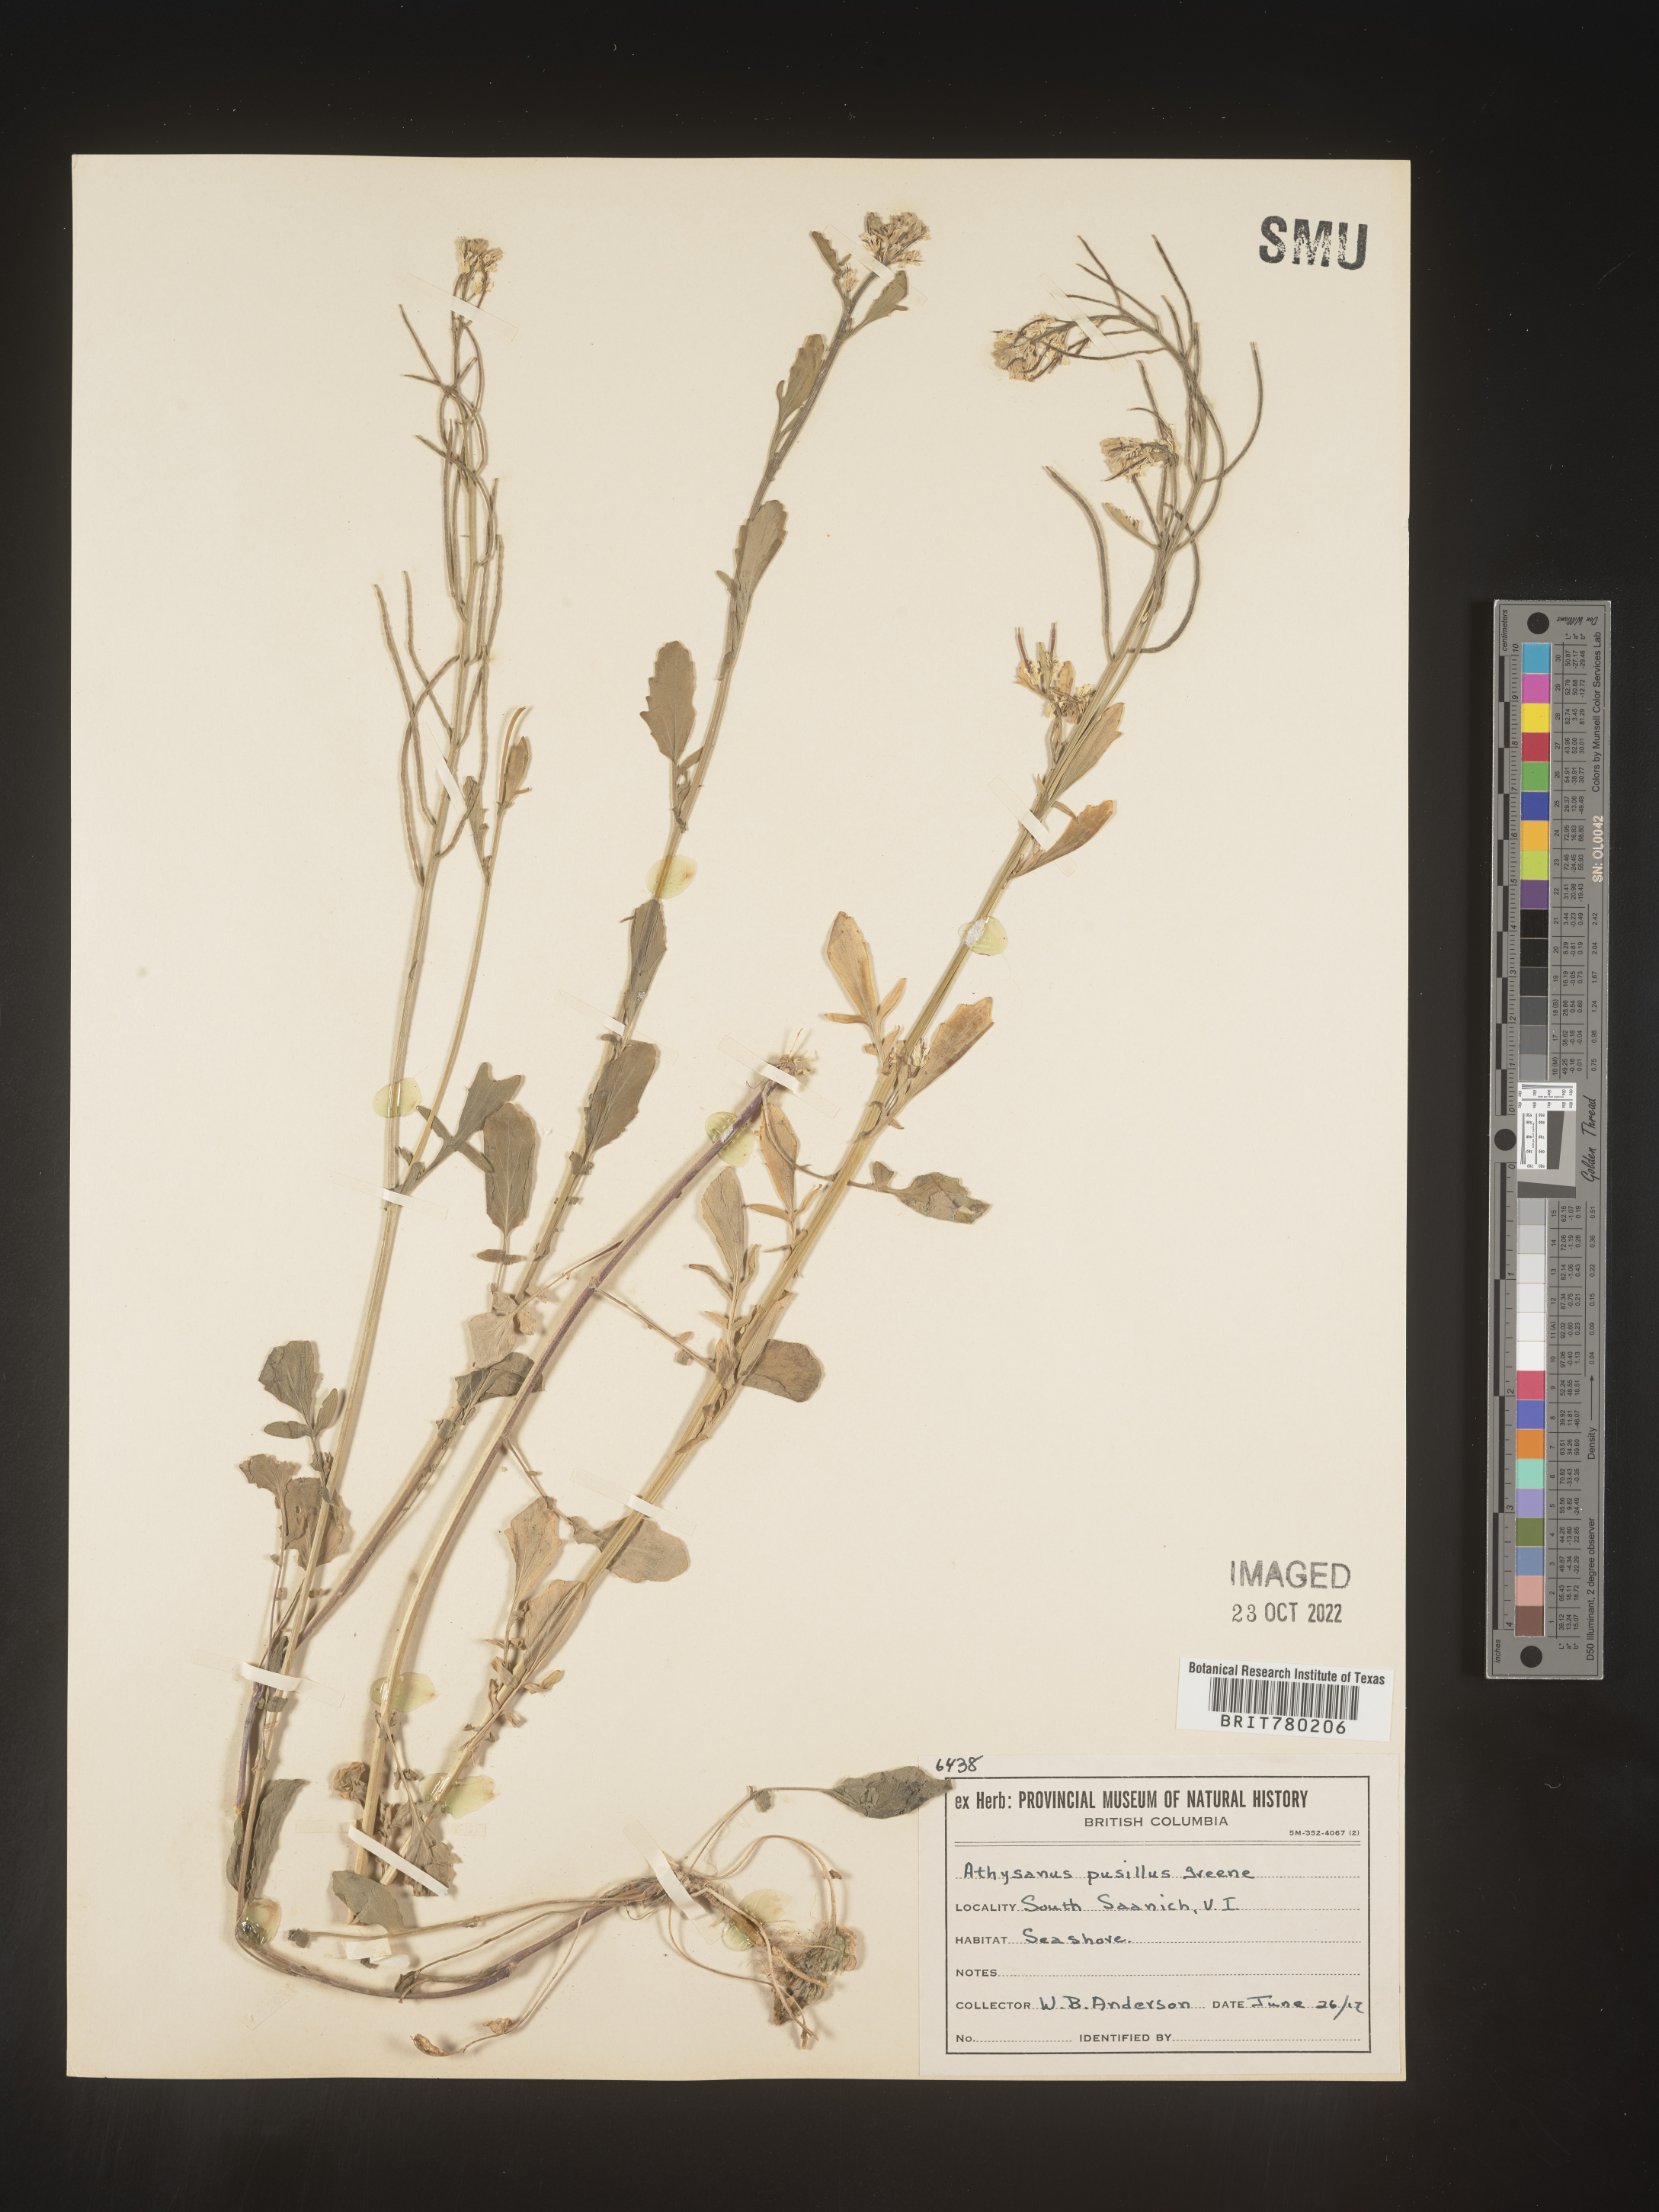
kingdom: Plantae
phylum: Tracheophyta
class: Magnoliopsida
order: Brassicales
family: Brassicaceae
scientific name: Brassicaceae
